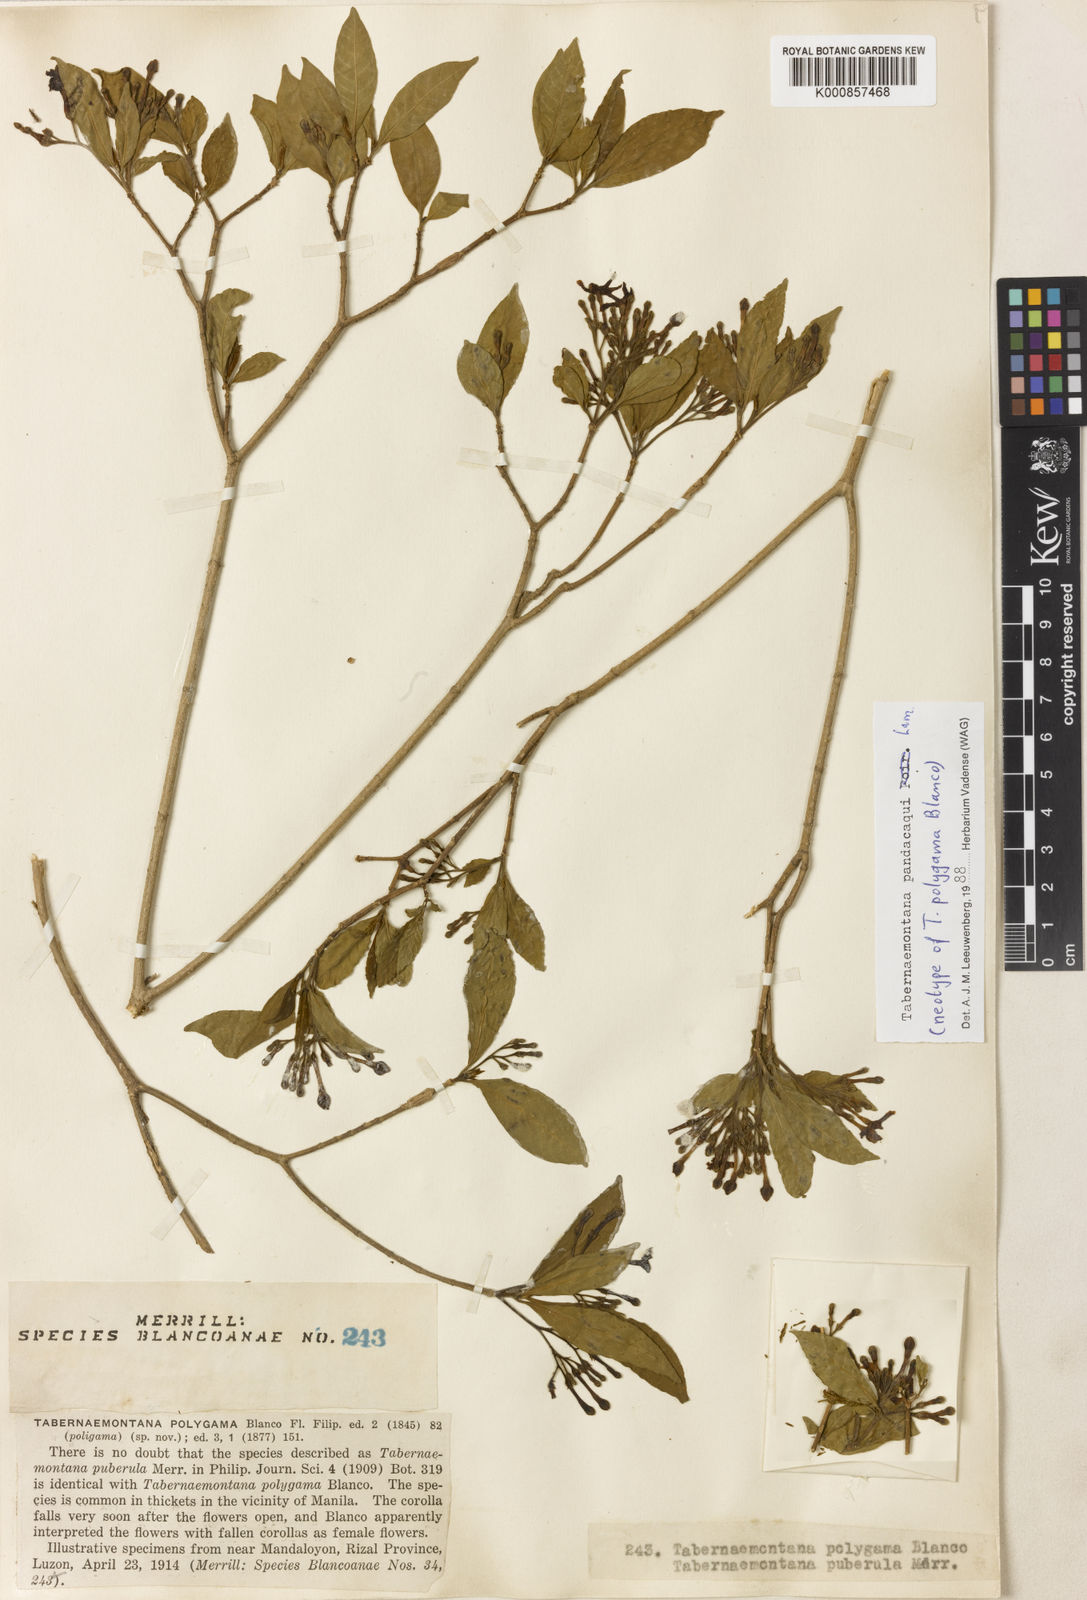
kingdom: Plantae
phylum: Tracheophyta
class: Magnoliopsida
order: Gentianales
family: Apocynaceae
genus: Tabernaemontana
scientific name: Tabernaemontana
